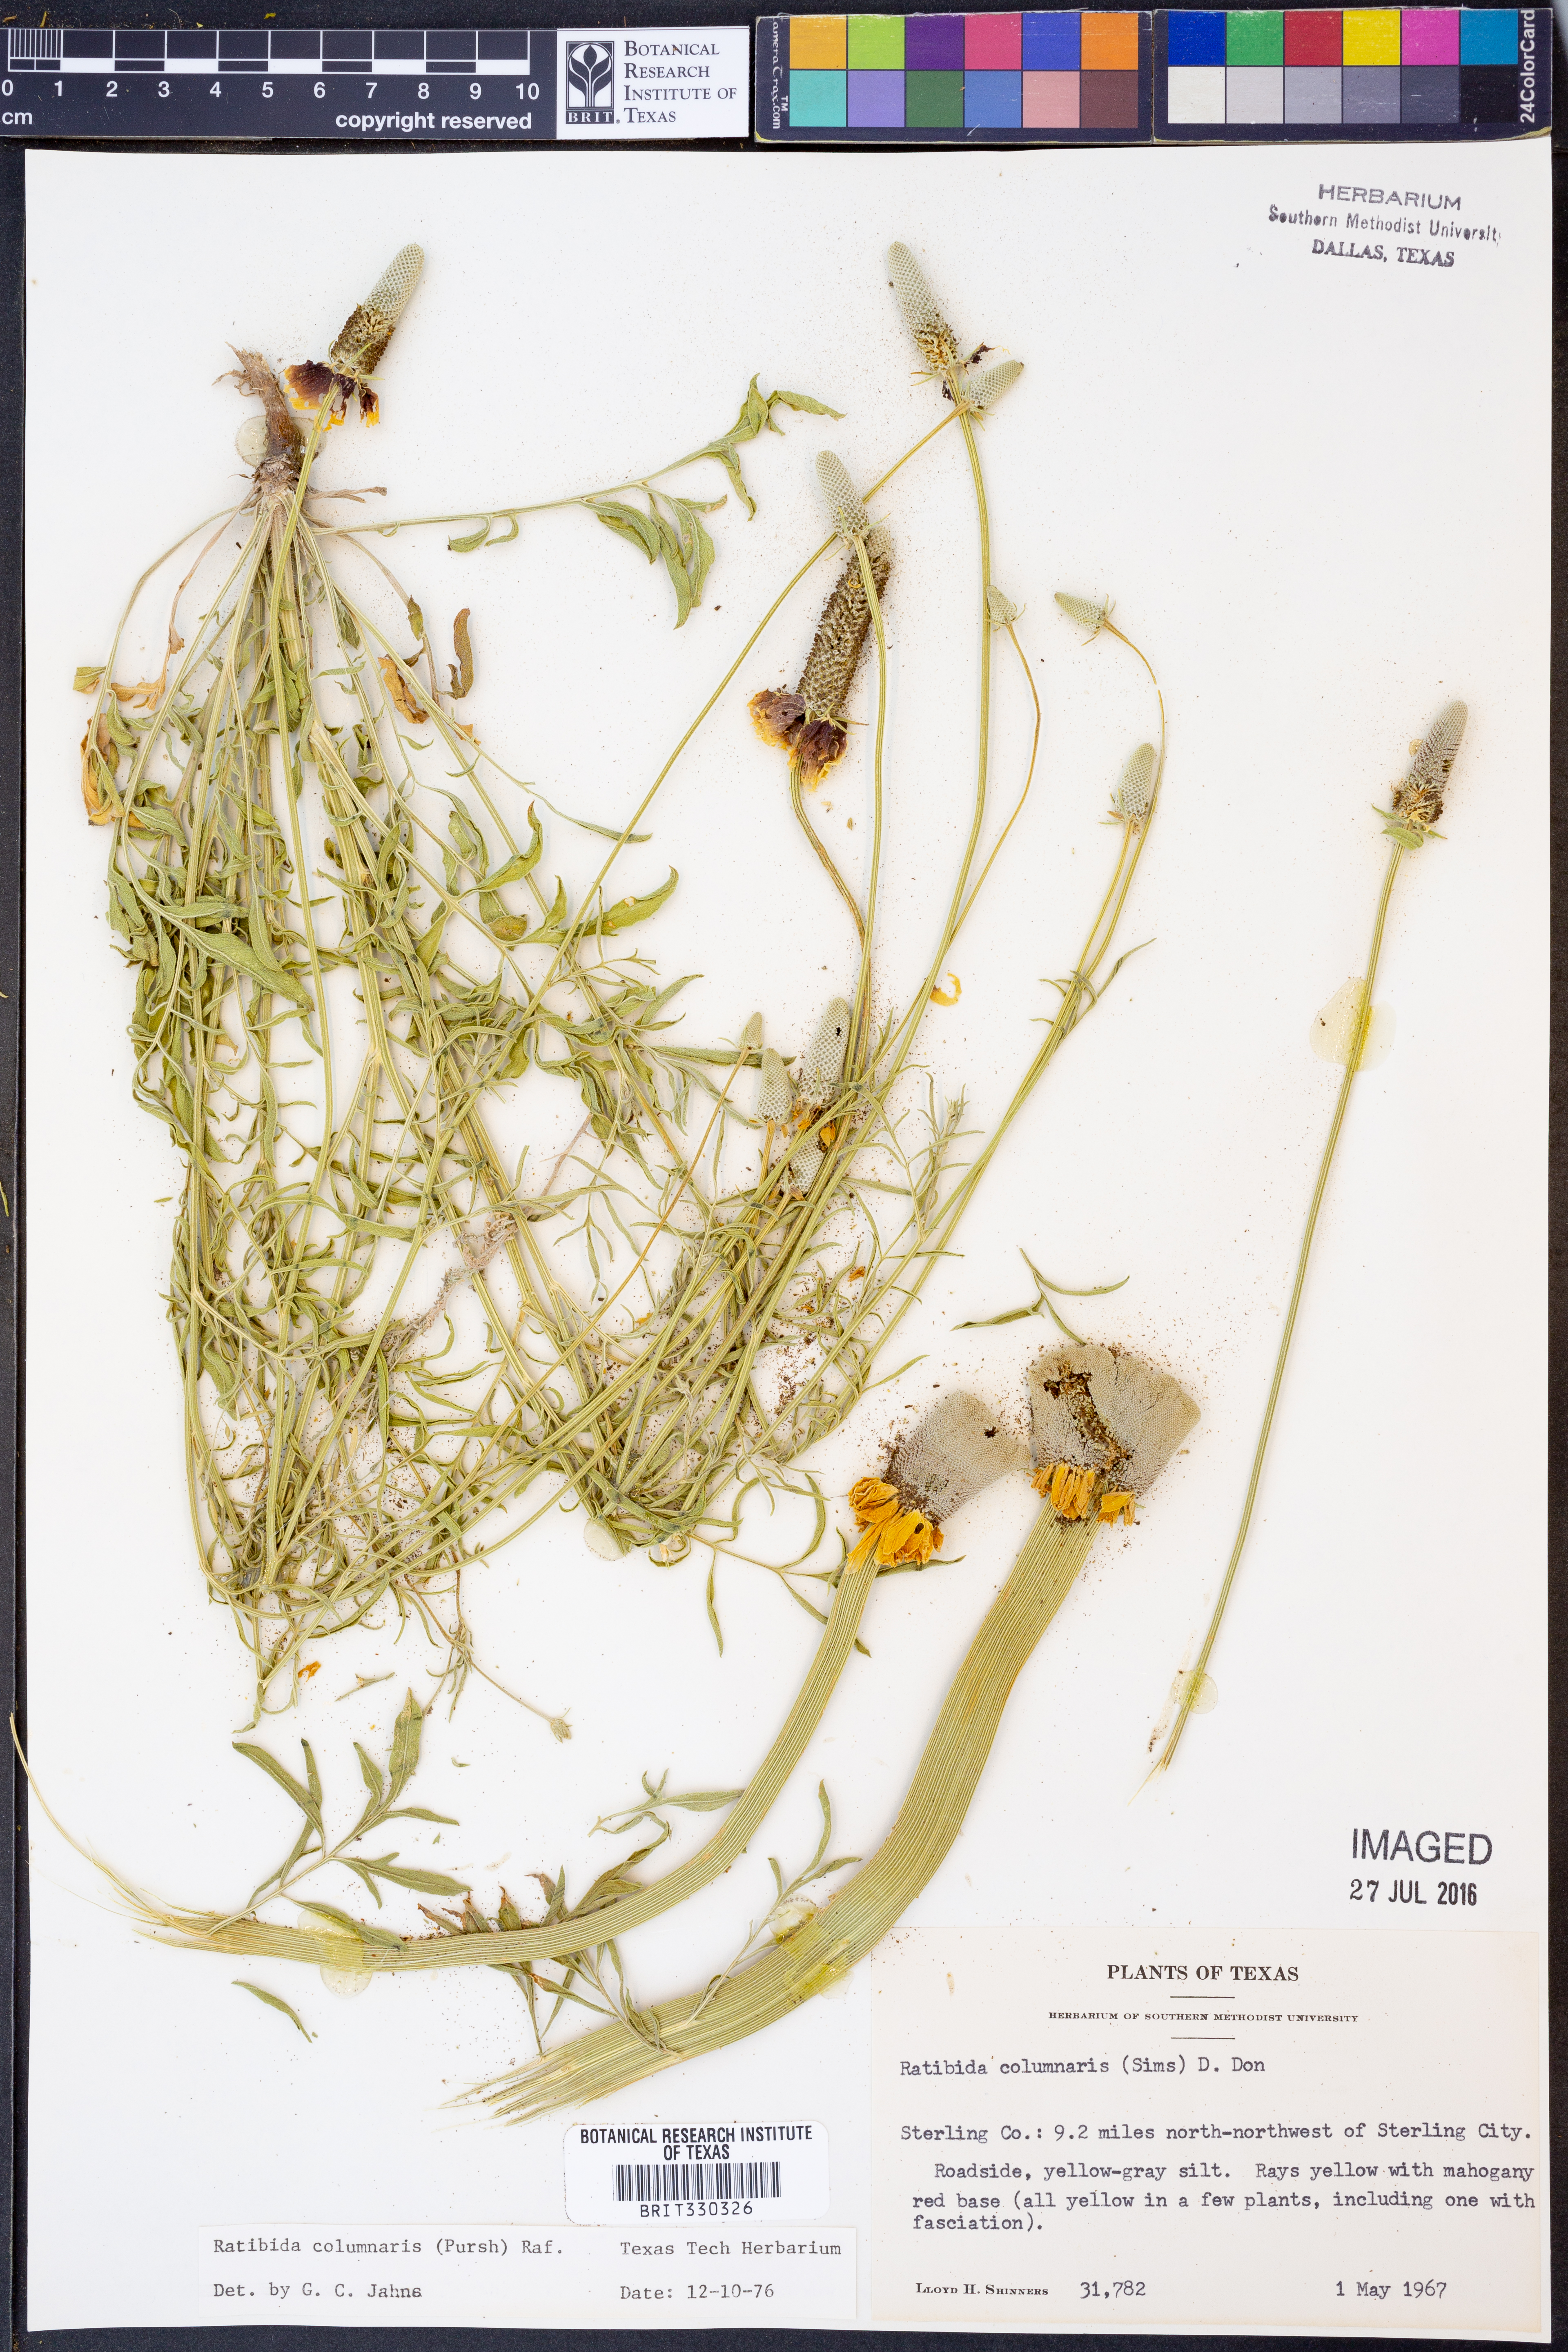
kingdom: Plantae
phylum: Tracheophyta
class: Magnoliopsida
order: Asterales
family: Asteraceae
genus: Ratibida
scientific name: Ratibida columnifera
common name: Prairie coneflower
